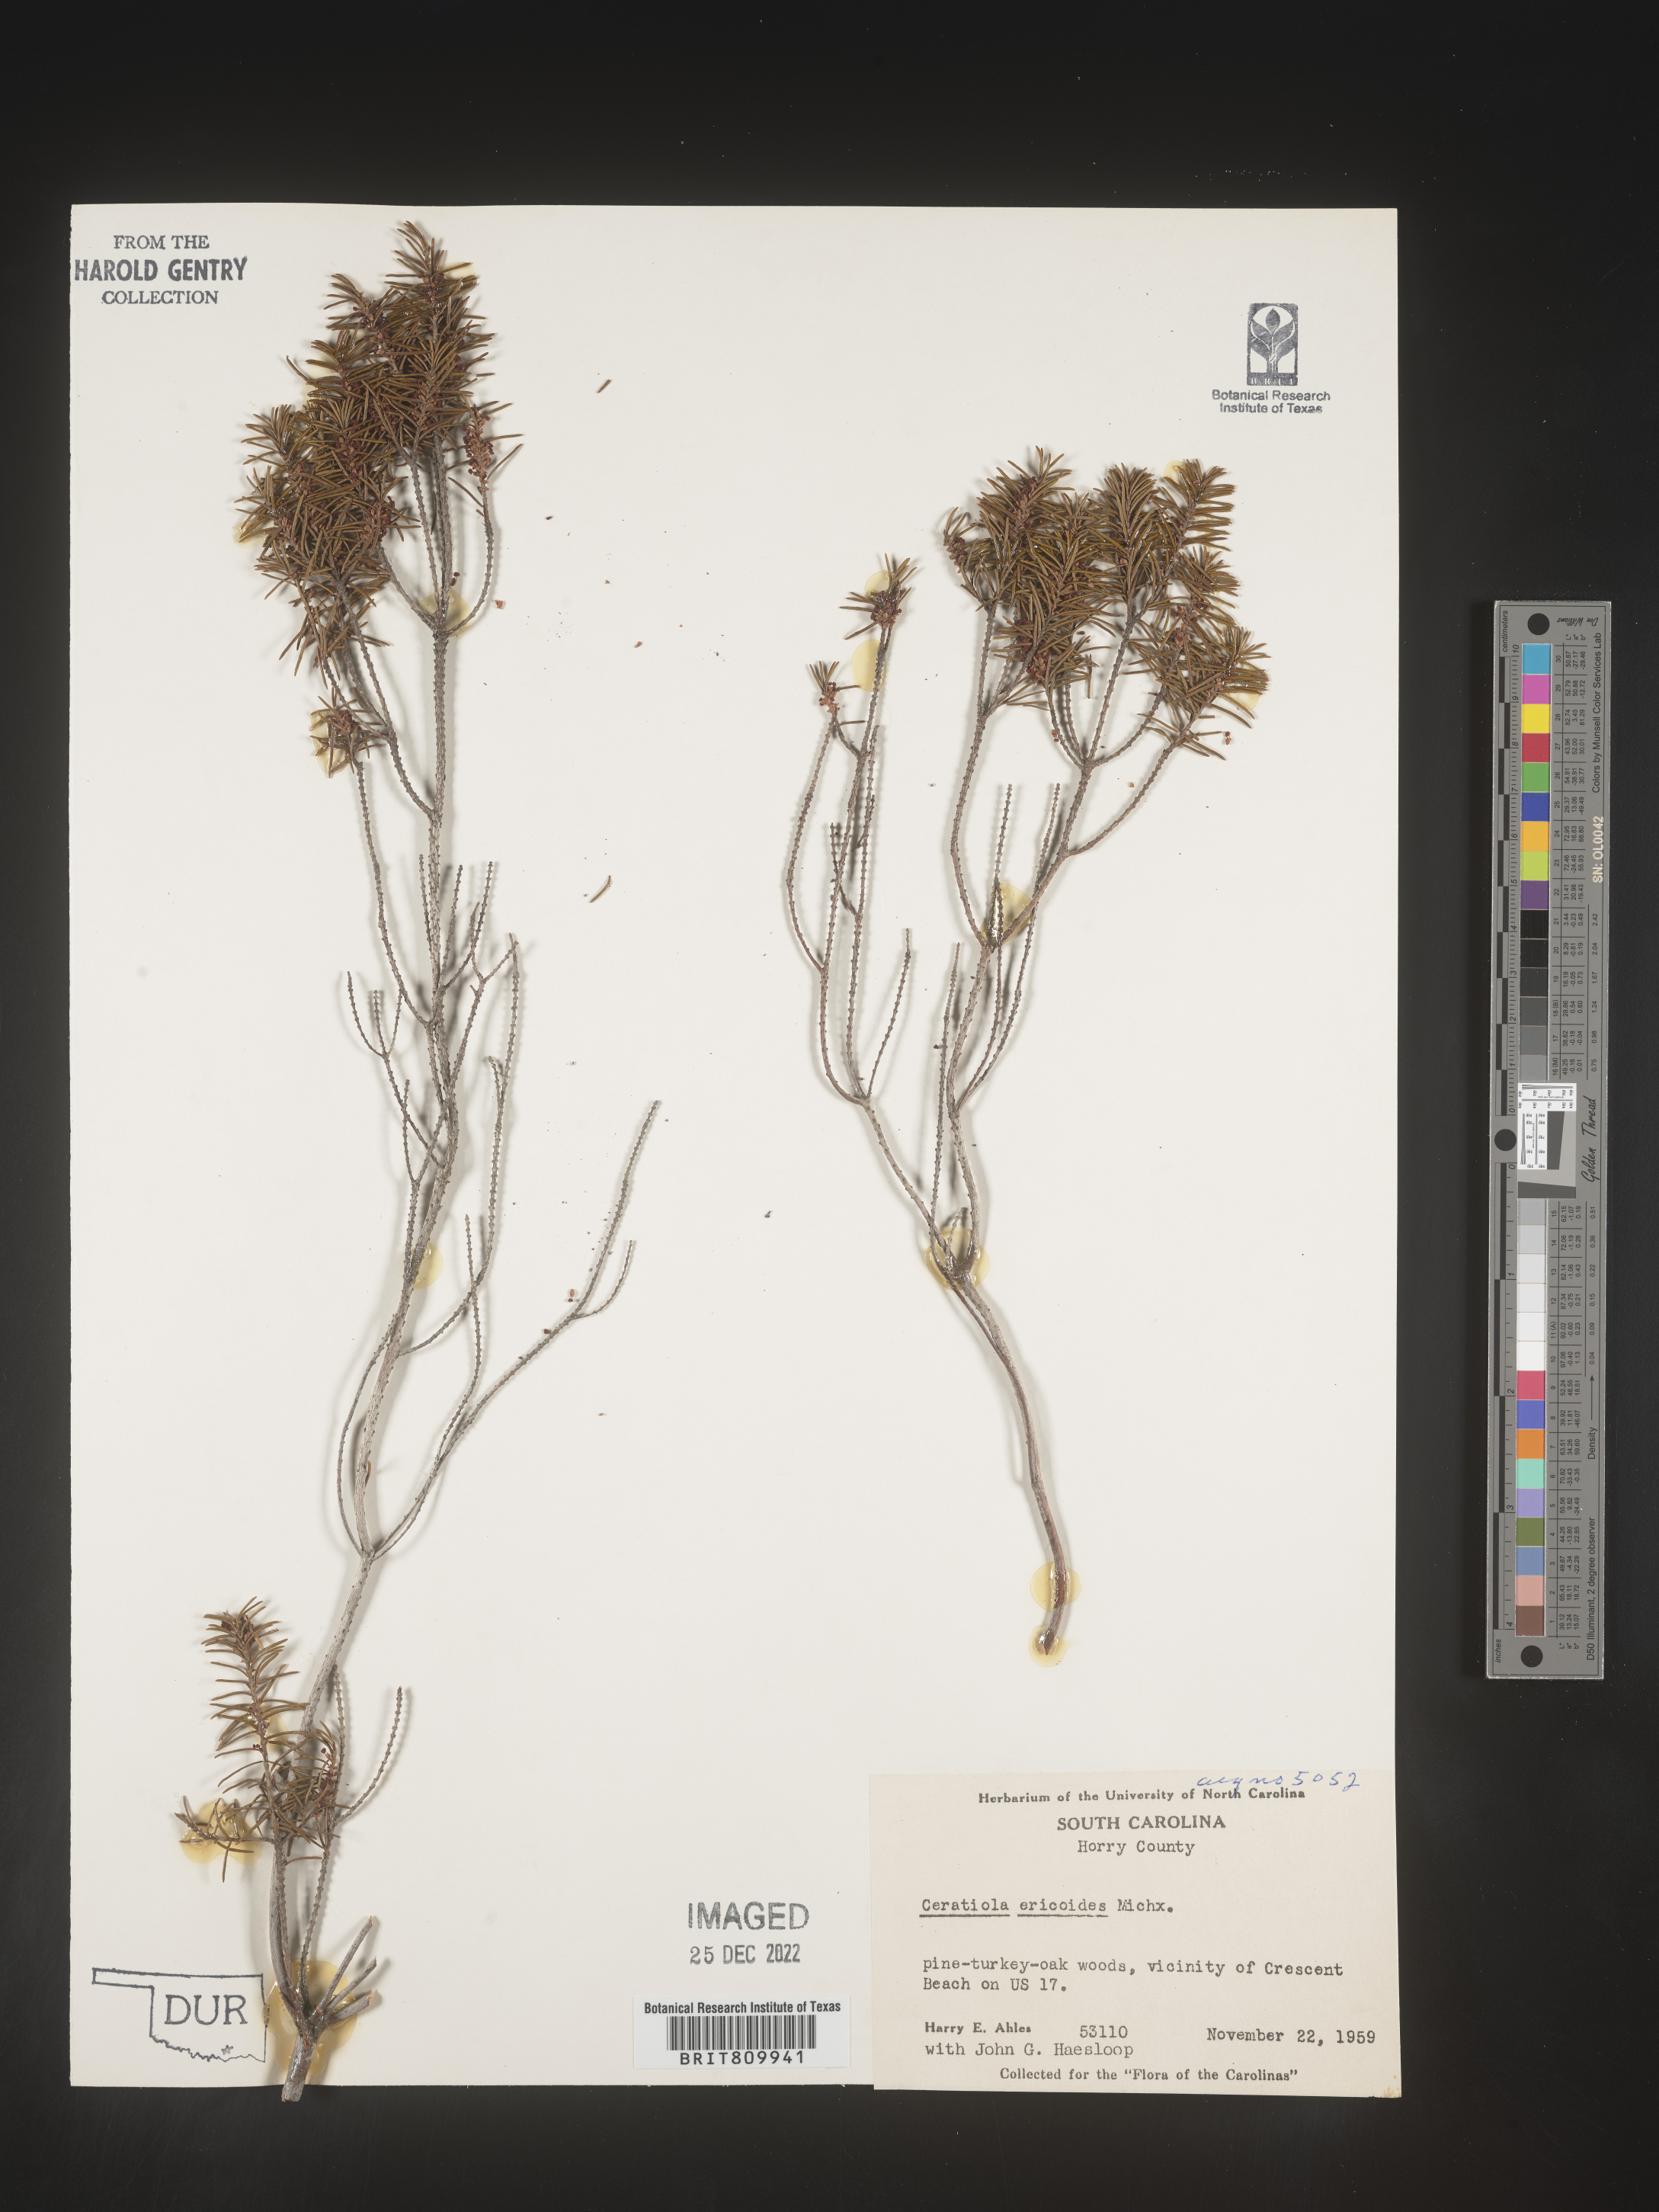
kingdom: Plantae
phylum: Tracheophyta
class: Magnoliopsida
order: Ericales
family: Ericaceae
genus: Ceratiola
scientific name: Ceratiola ericoides
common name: Sandhill-rosemary
